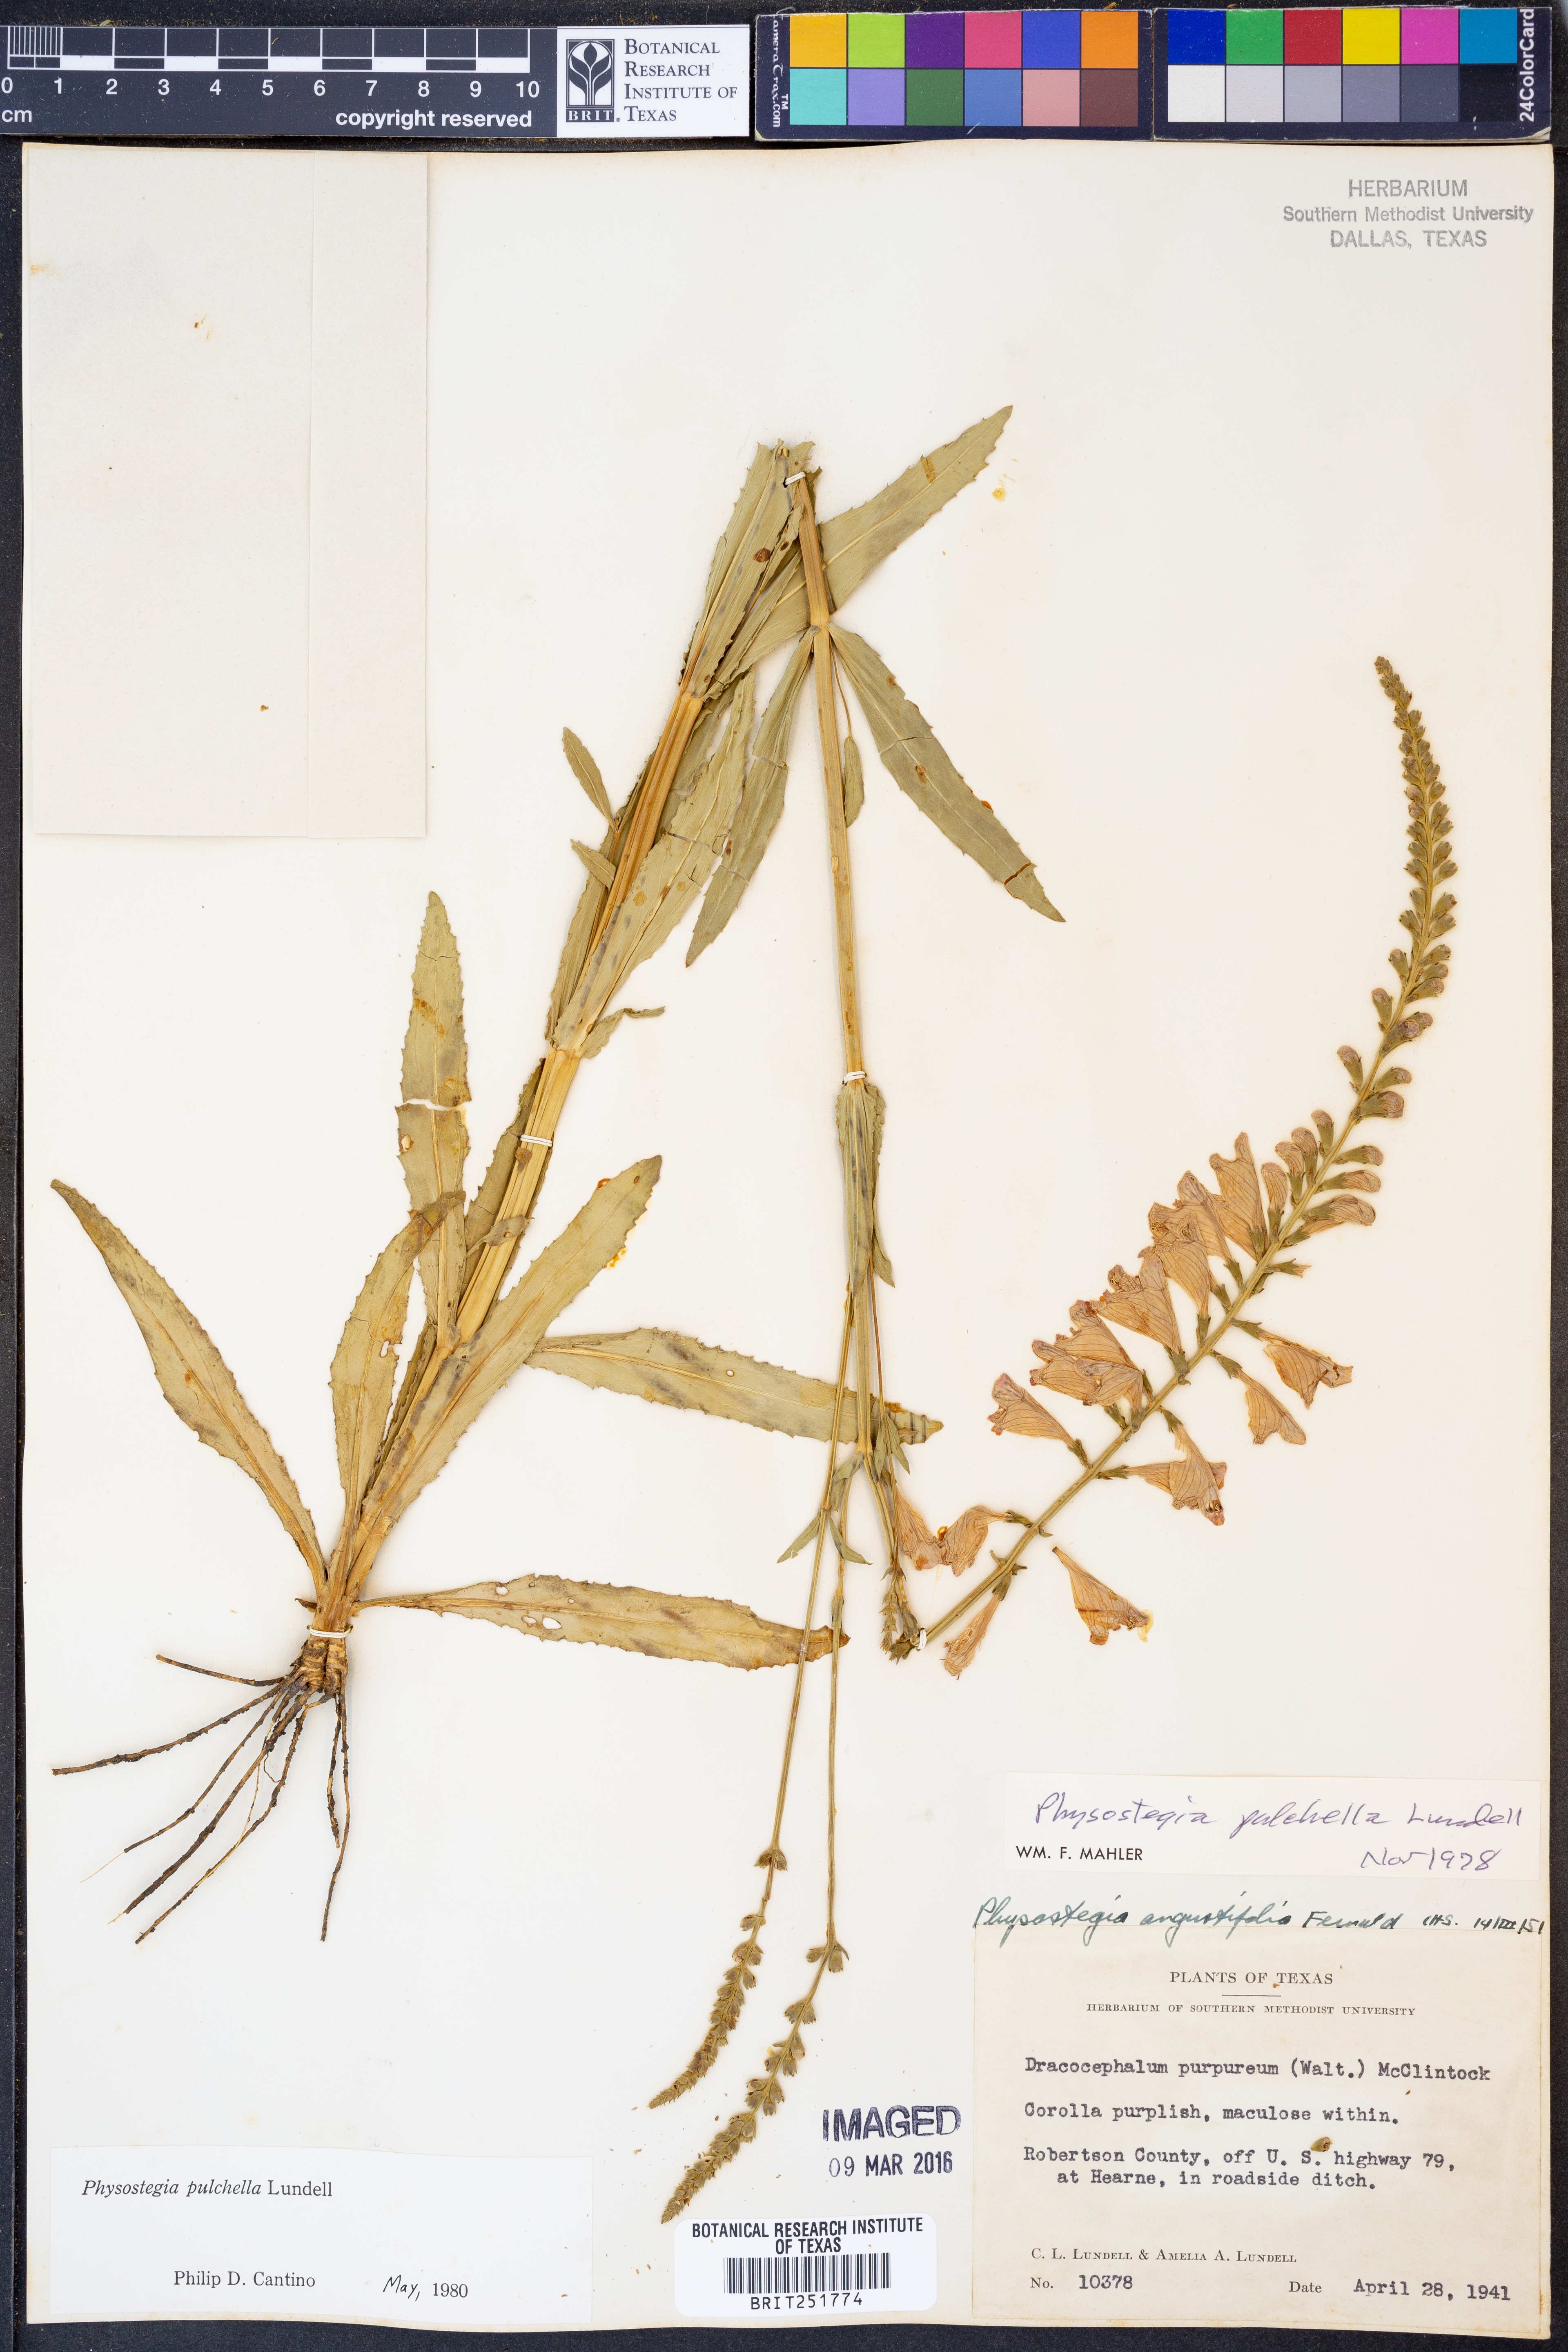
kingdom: Plantae
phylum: Tracheophyta
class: Magnoliopsida
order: Lamiales
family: Lamiaceae
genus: Physostegia
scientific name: Physostegia pulchella
